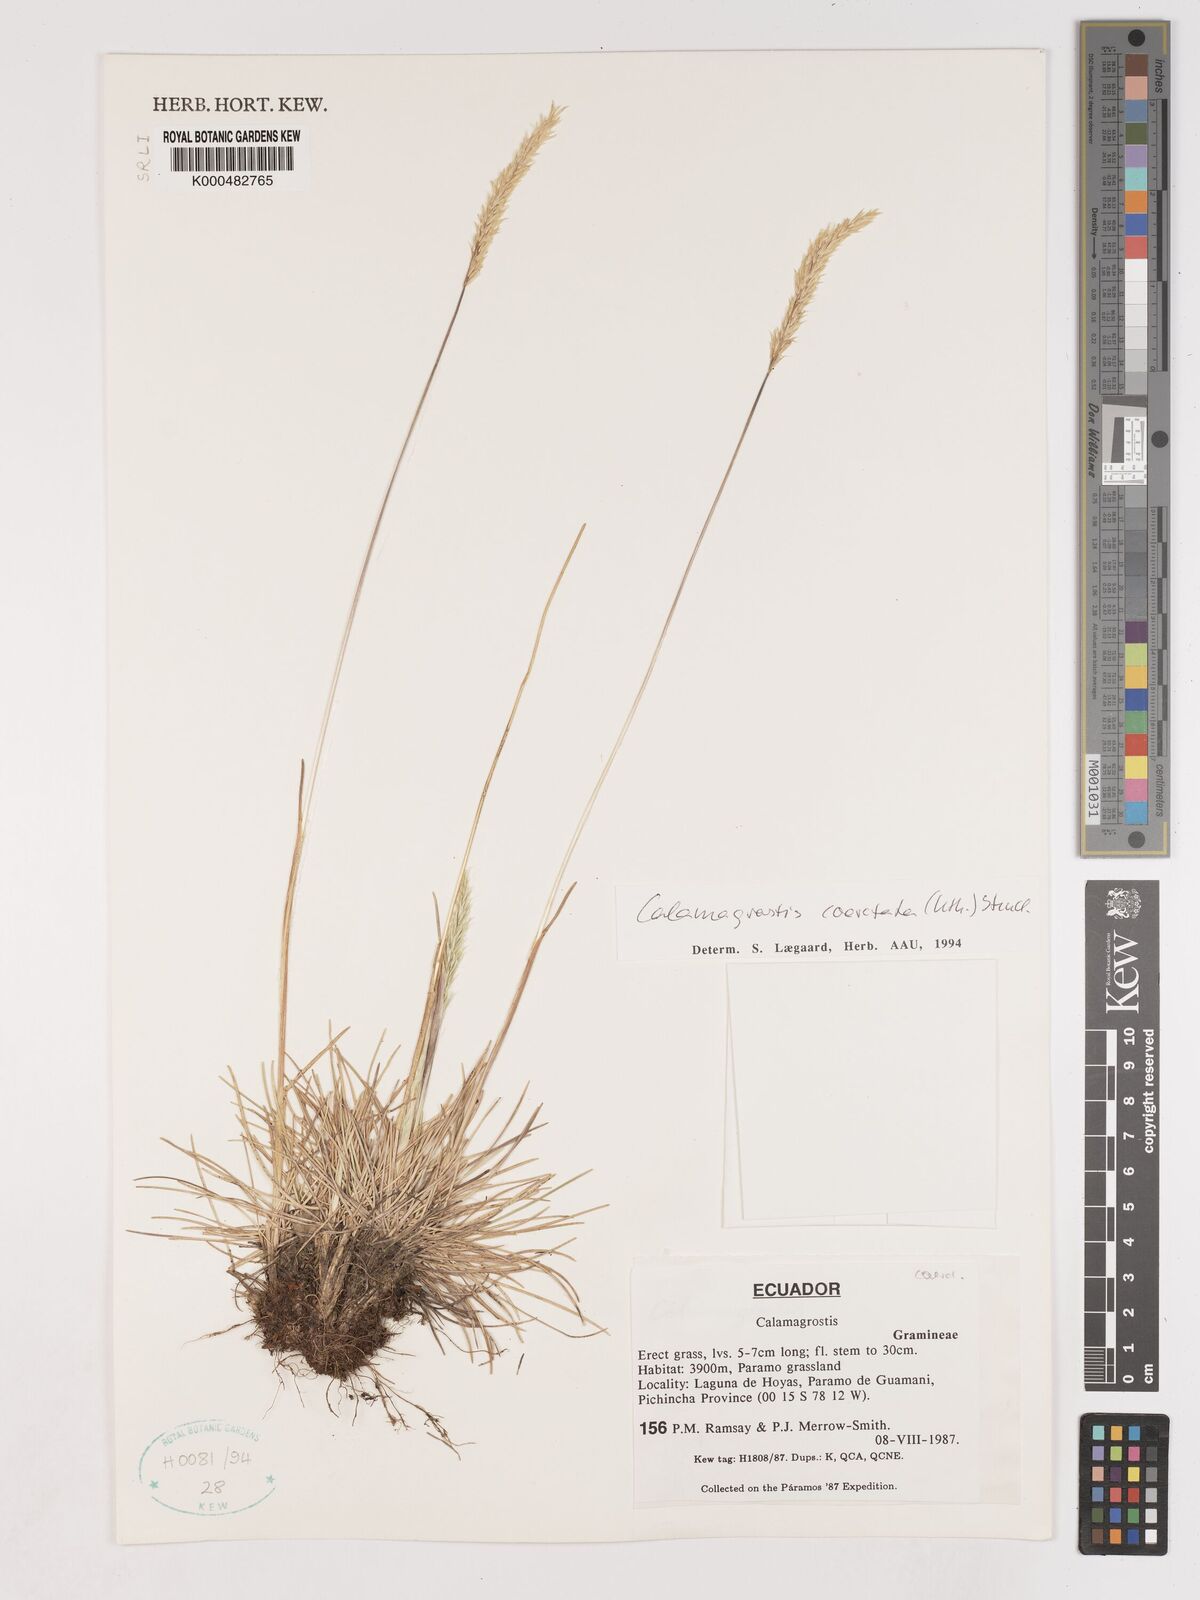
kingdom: Plantae
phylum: Tracheophyta
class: Liliopsida
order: Poales
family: Poaceae
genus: Cinnagrostis
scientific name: Cinnagrostis coarctata
